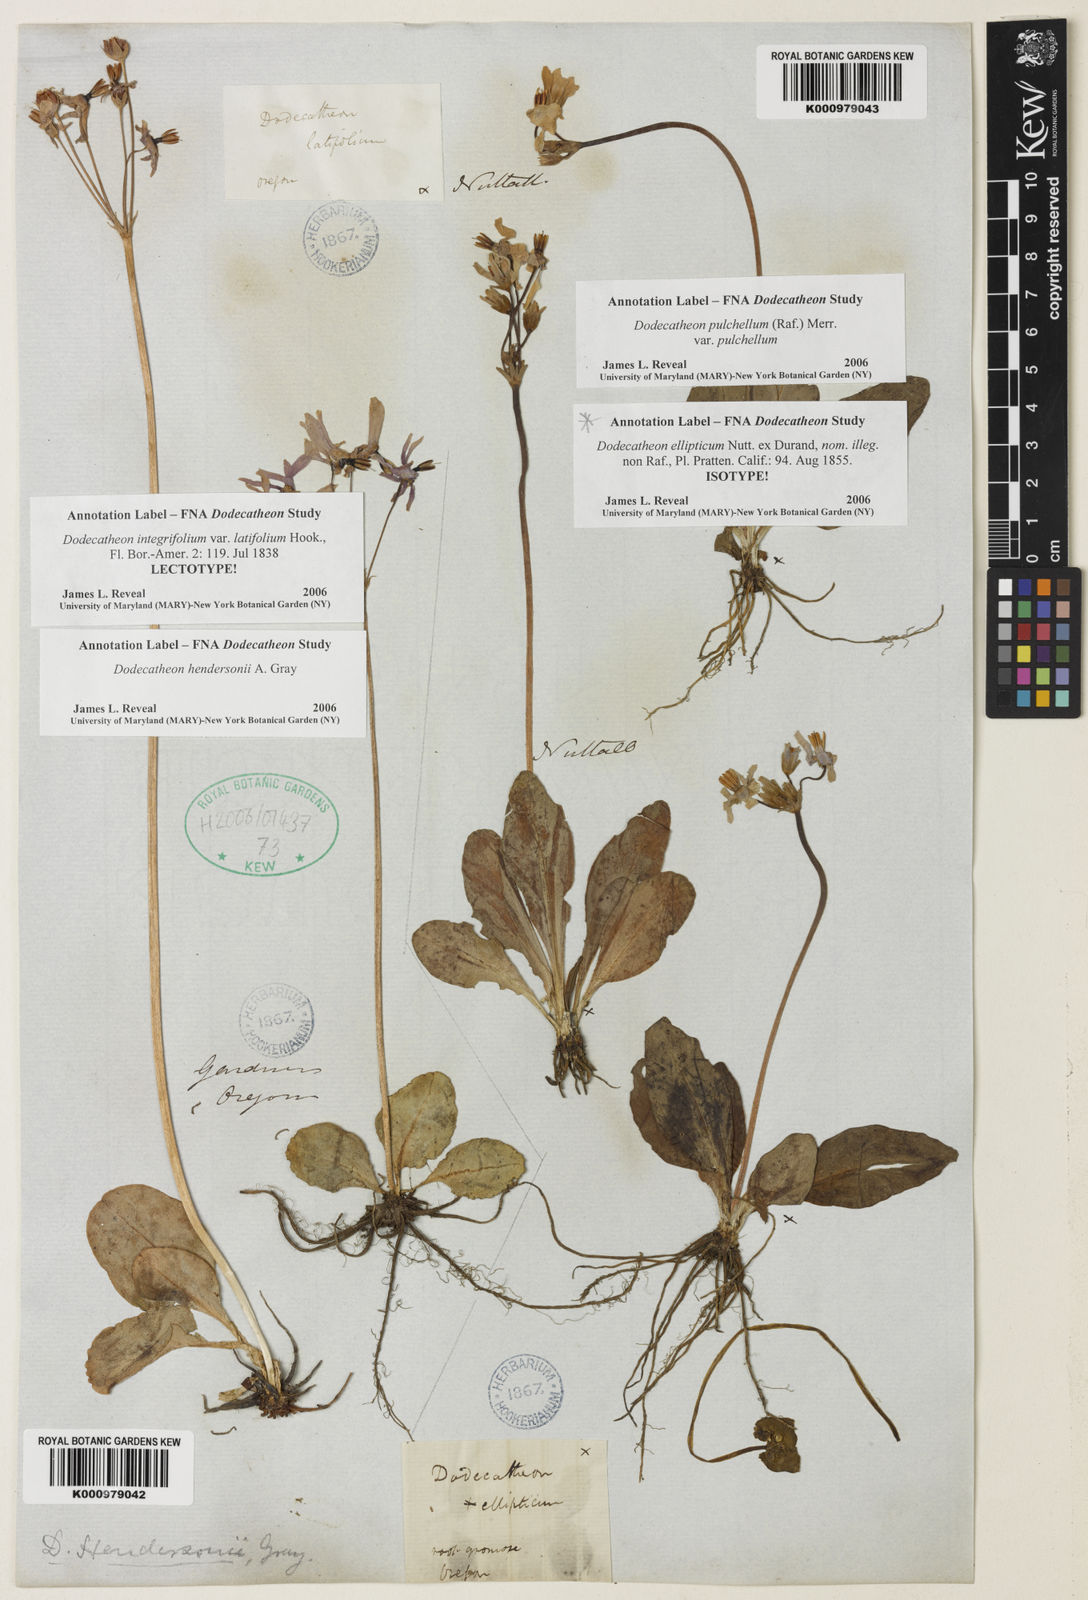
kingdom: Plantae
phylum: Tracheophyta
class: Magnoliopsida
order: Ericales
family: Primulaceae
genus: Dodecatheon
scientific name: Dodecatheon hendersonii
